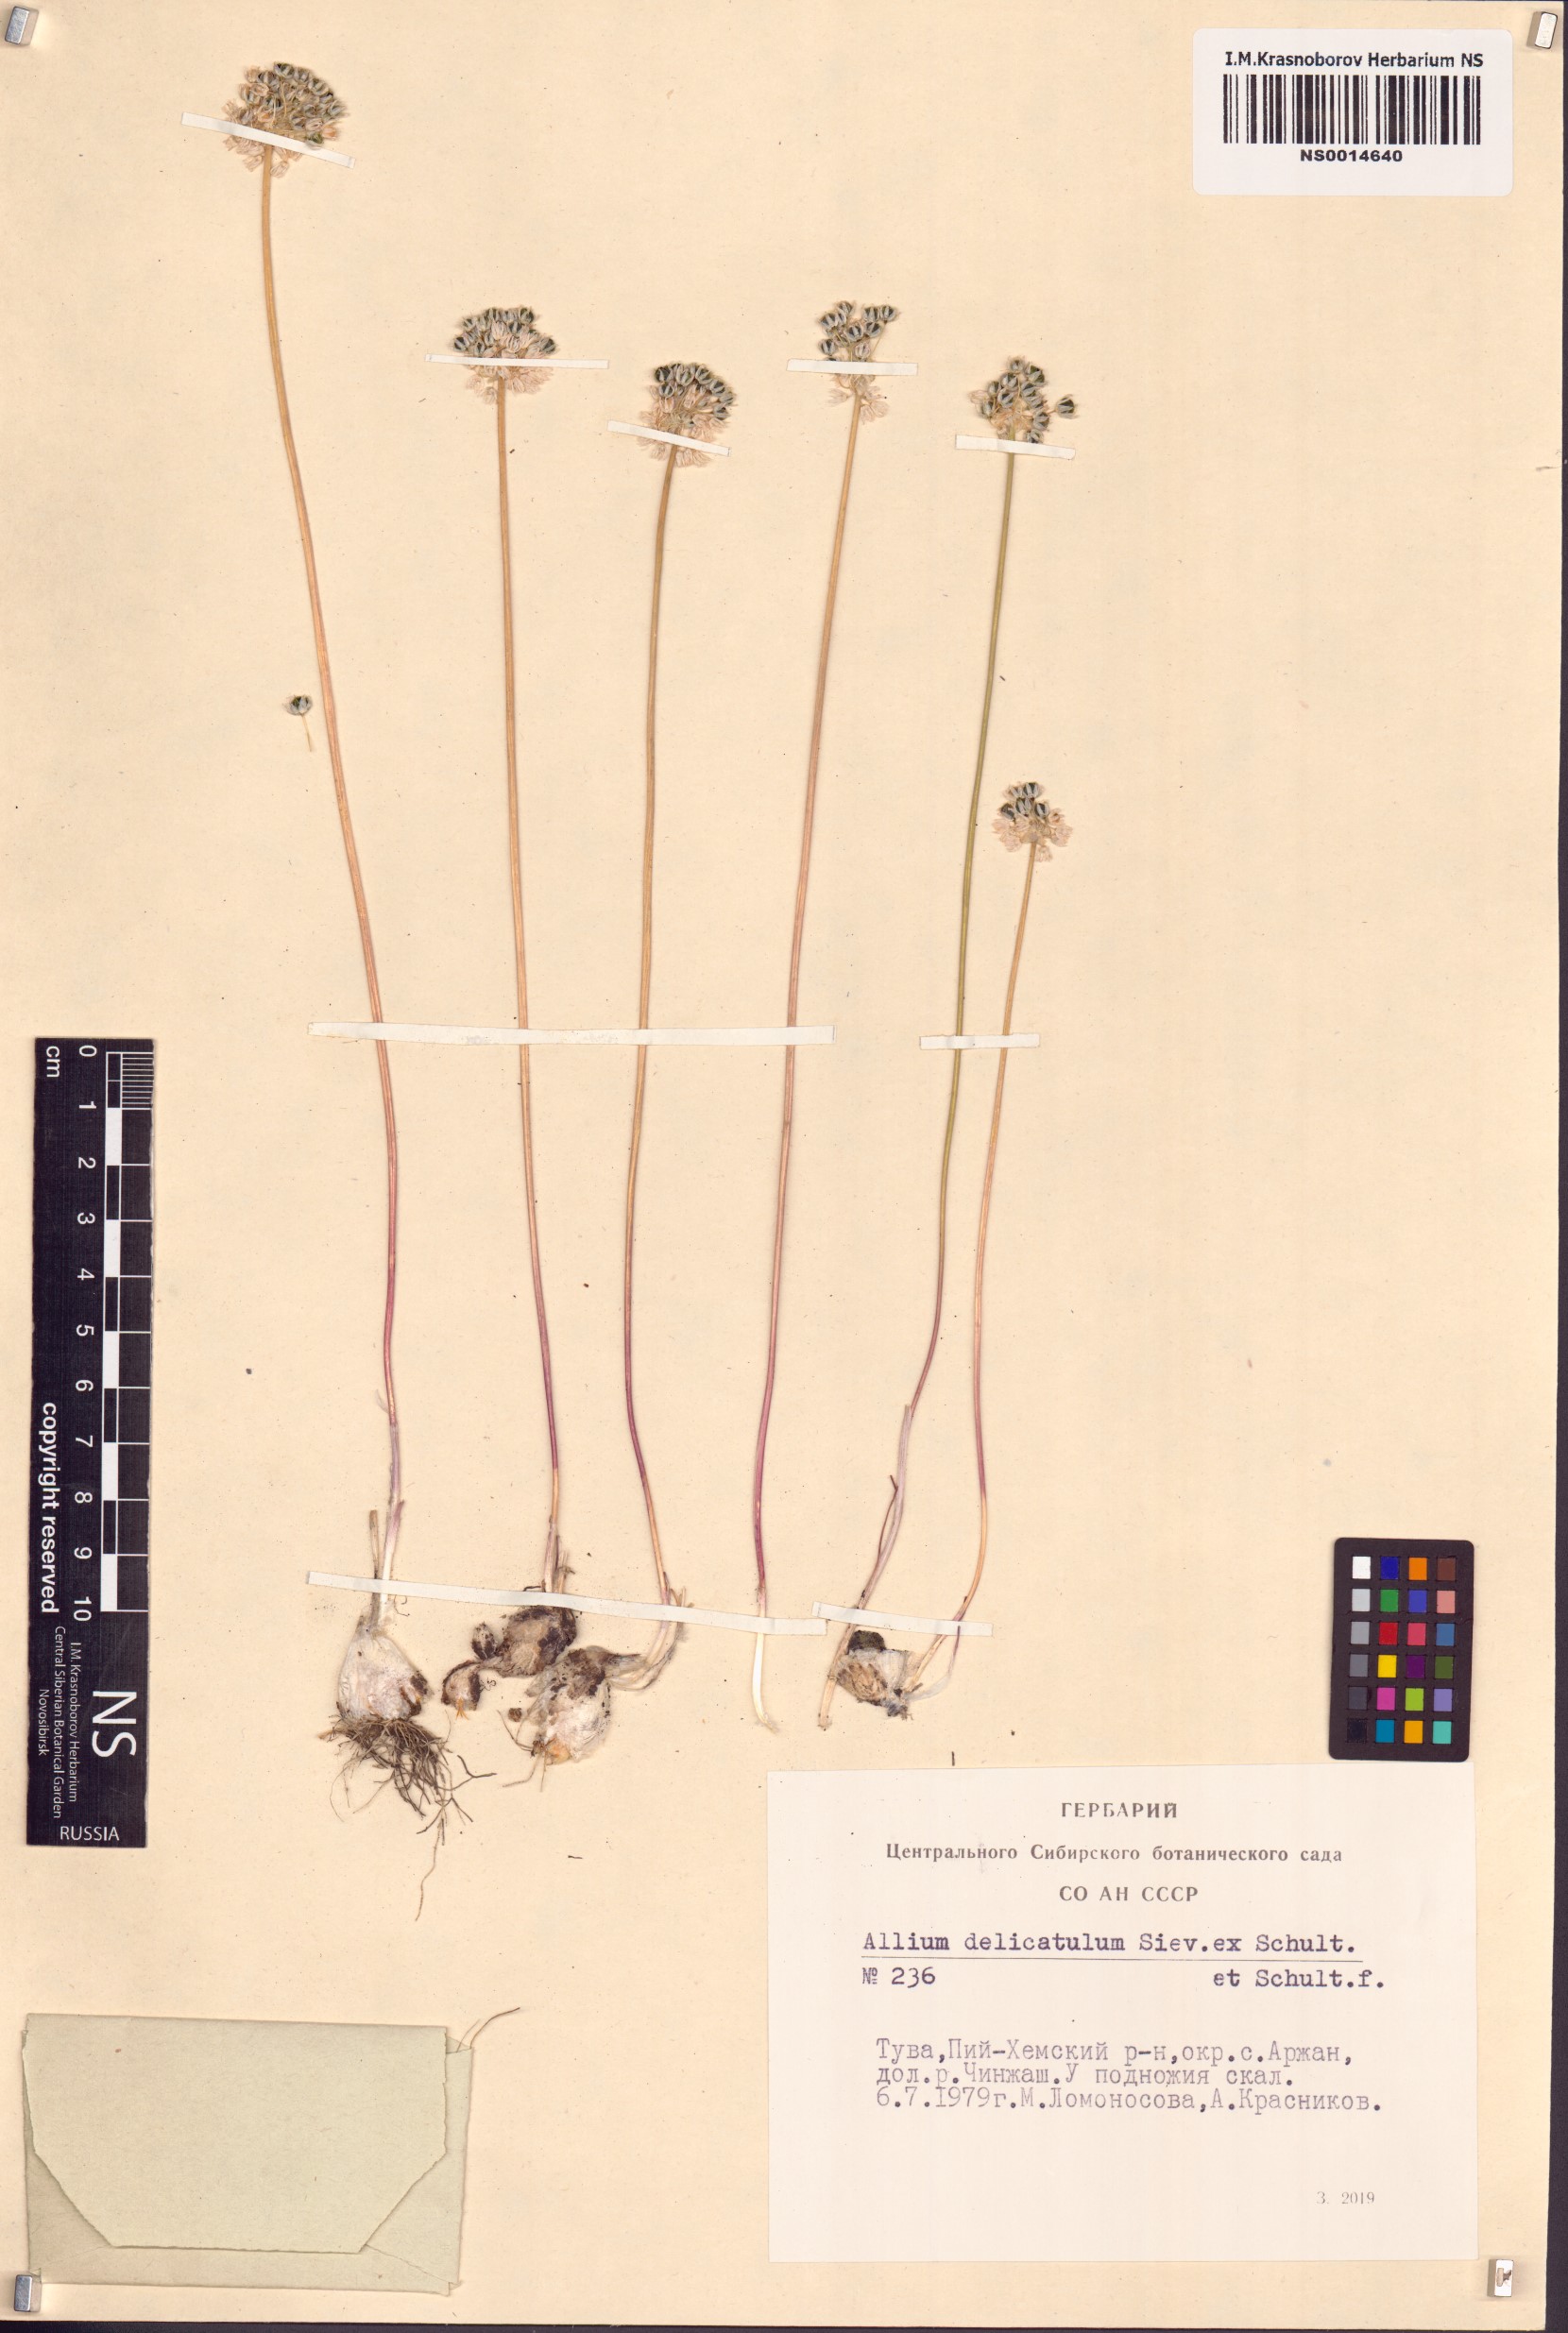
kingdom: Plantae
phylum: Tracheophyta
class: Liliopsida
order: Asparagales
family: Amaryllidaceae
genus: Allium
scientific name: Allium delicatulum
